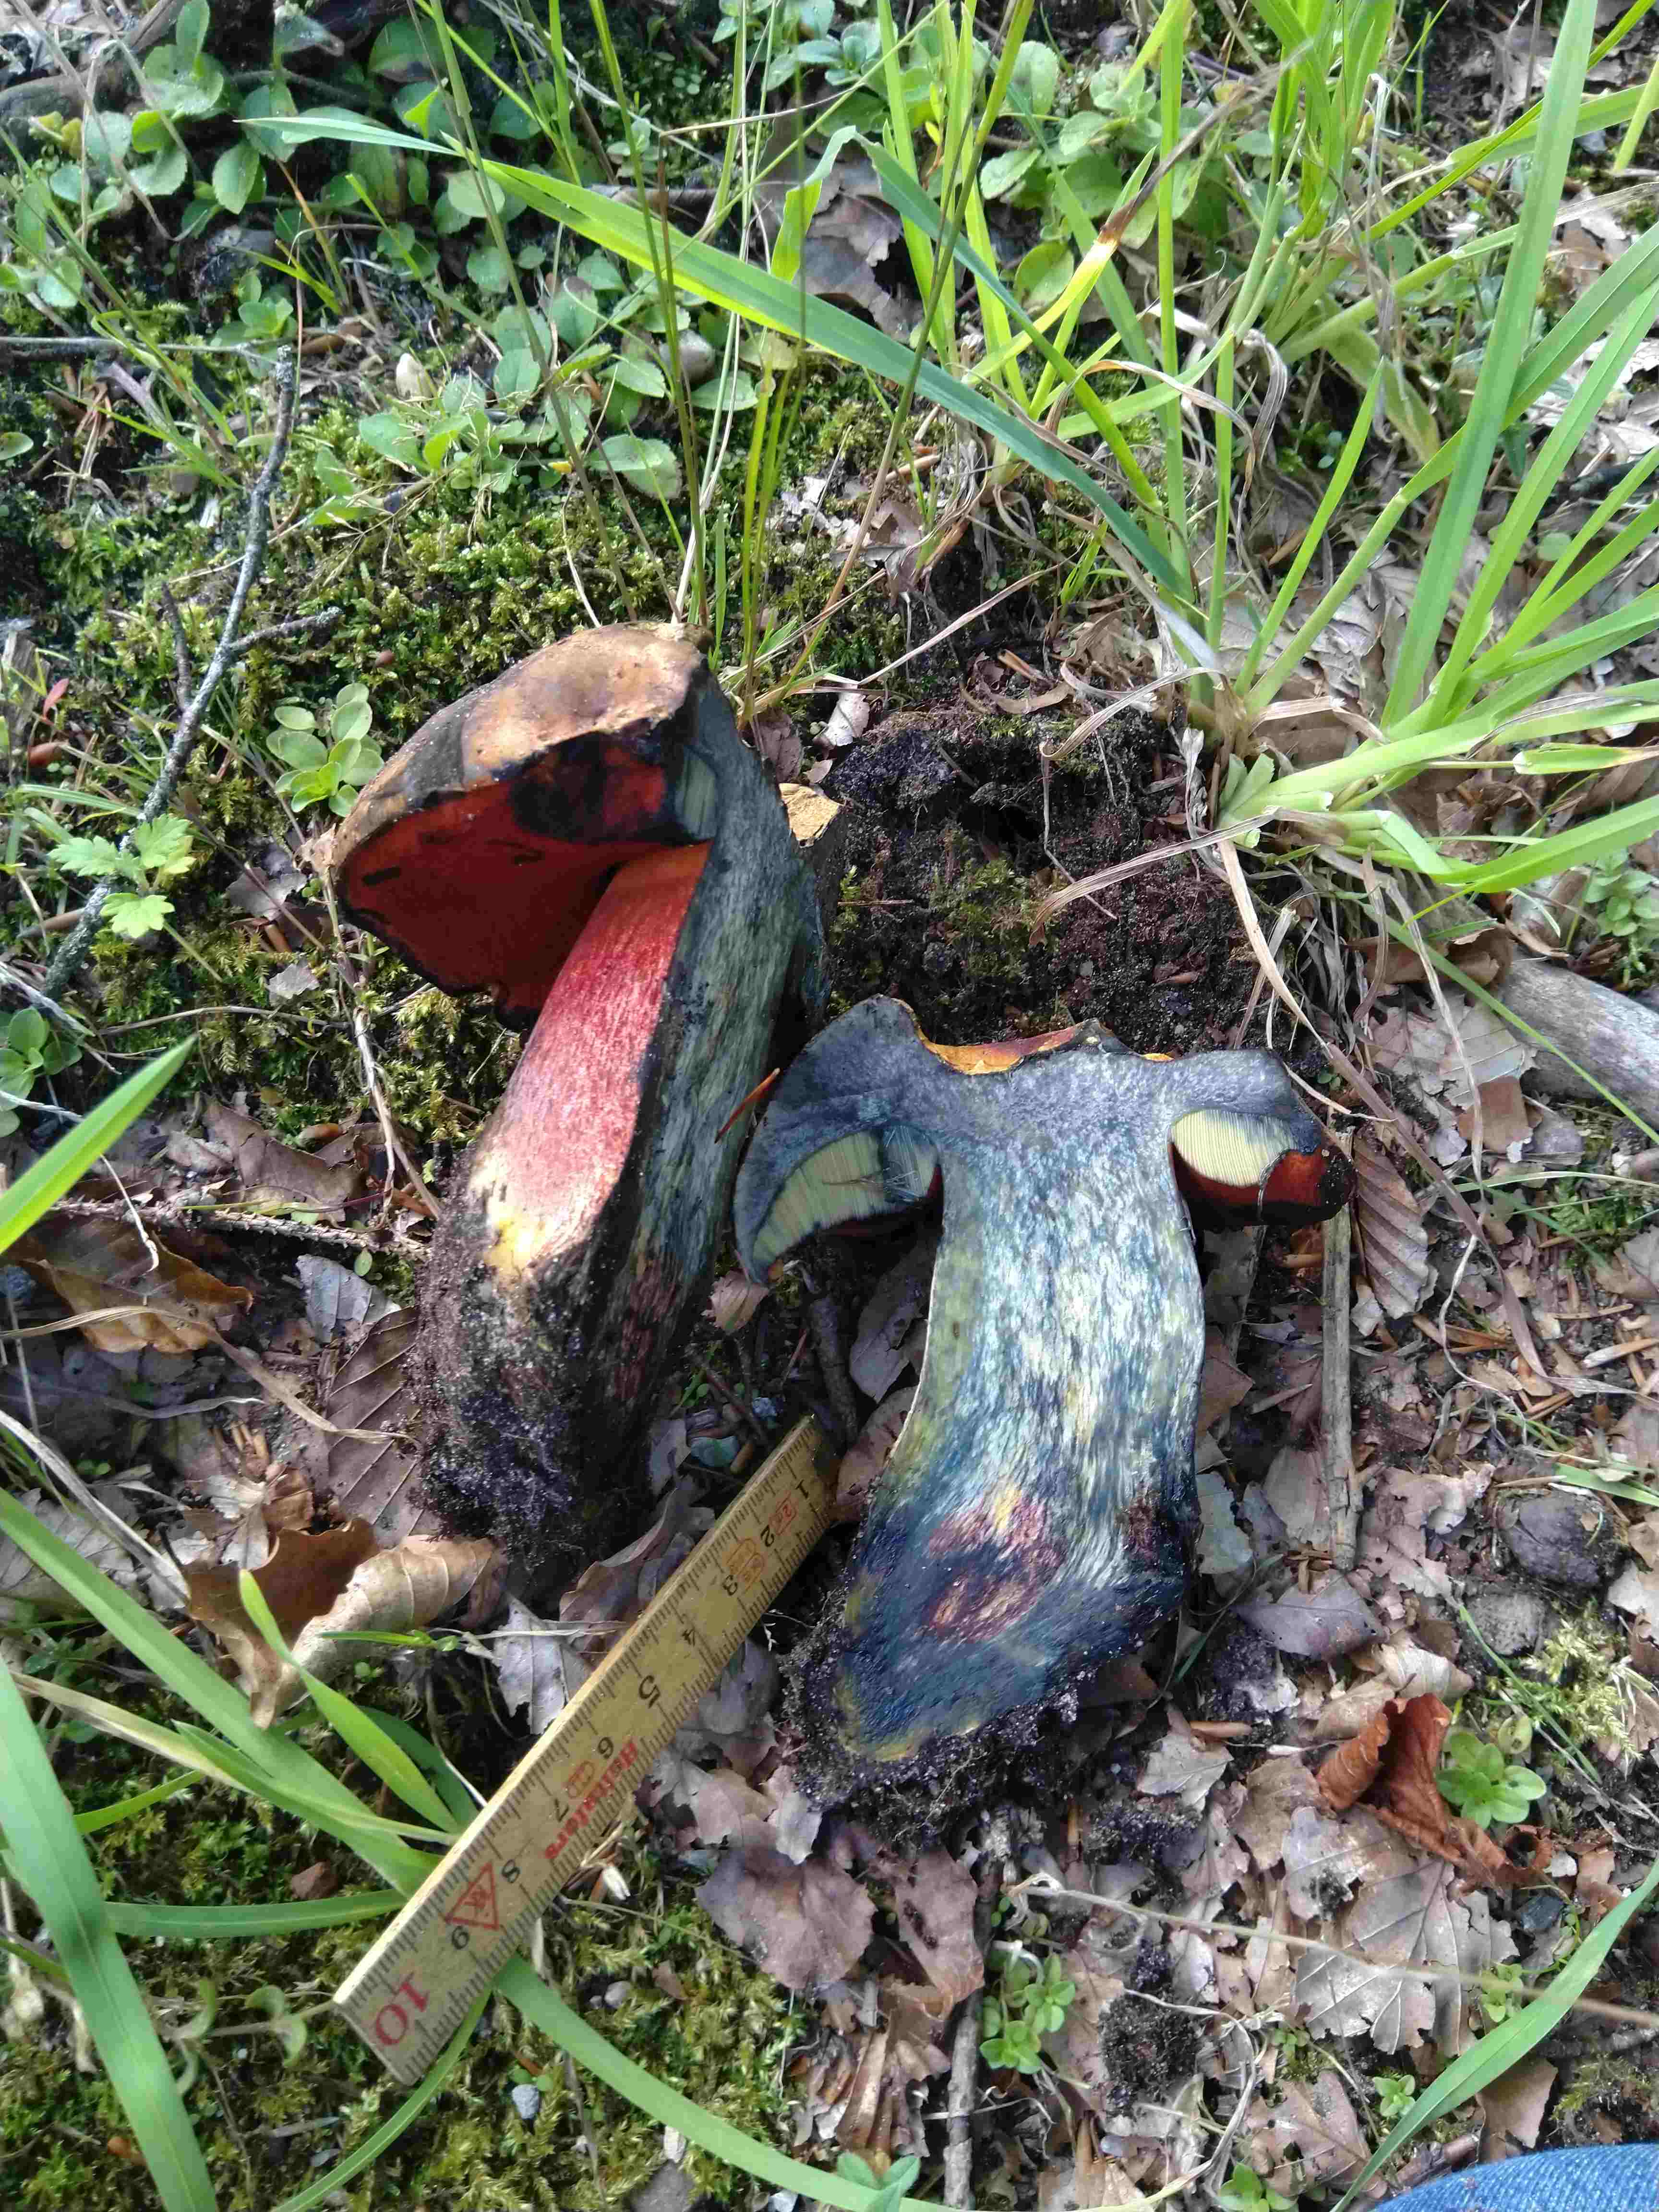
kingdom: Fungi
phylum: Basidiomycota
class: Agaricomycetes
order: Boletales
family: Boletaceae
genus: Neoboletus
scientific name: Neoboletus erythropus
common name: punktstokket indigorørhat
